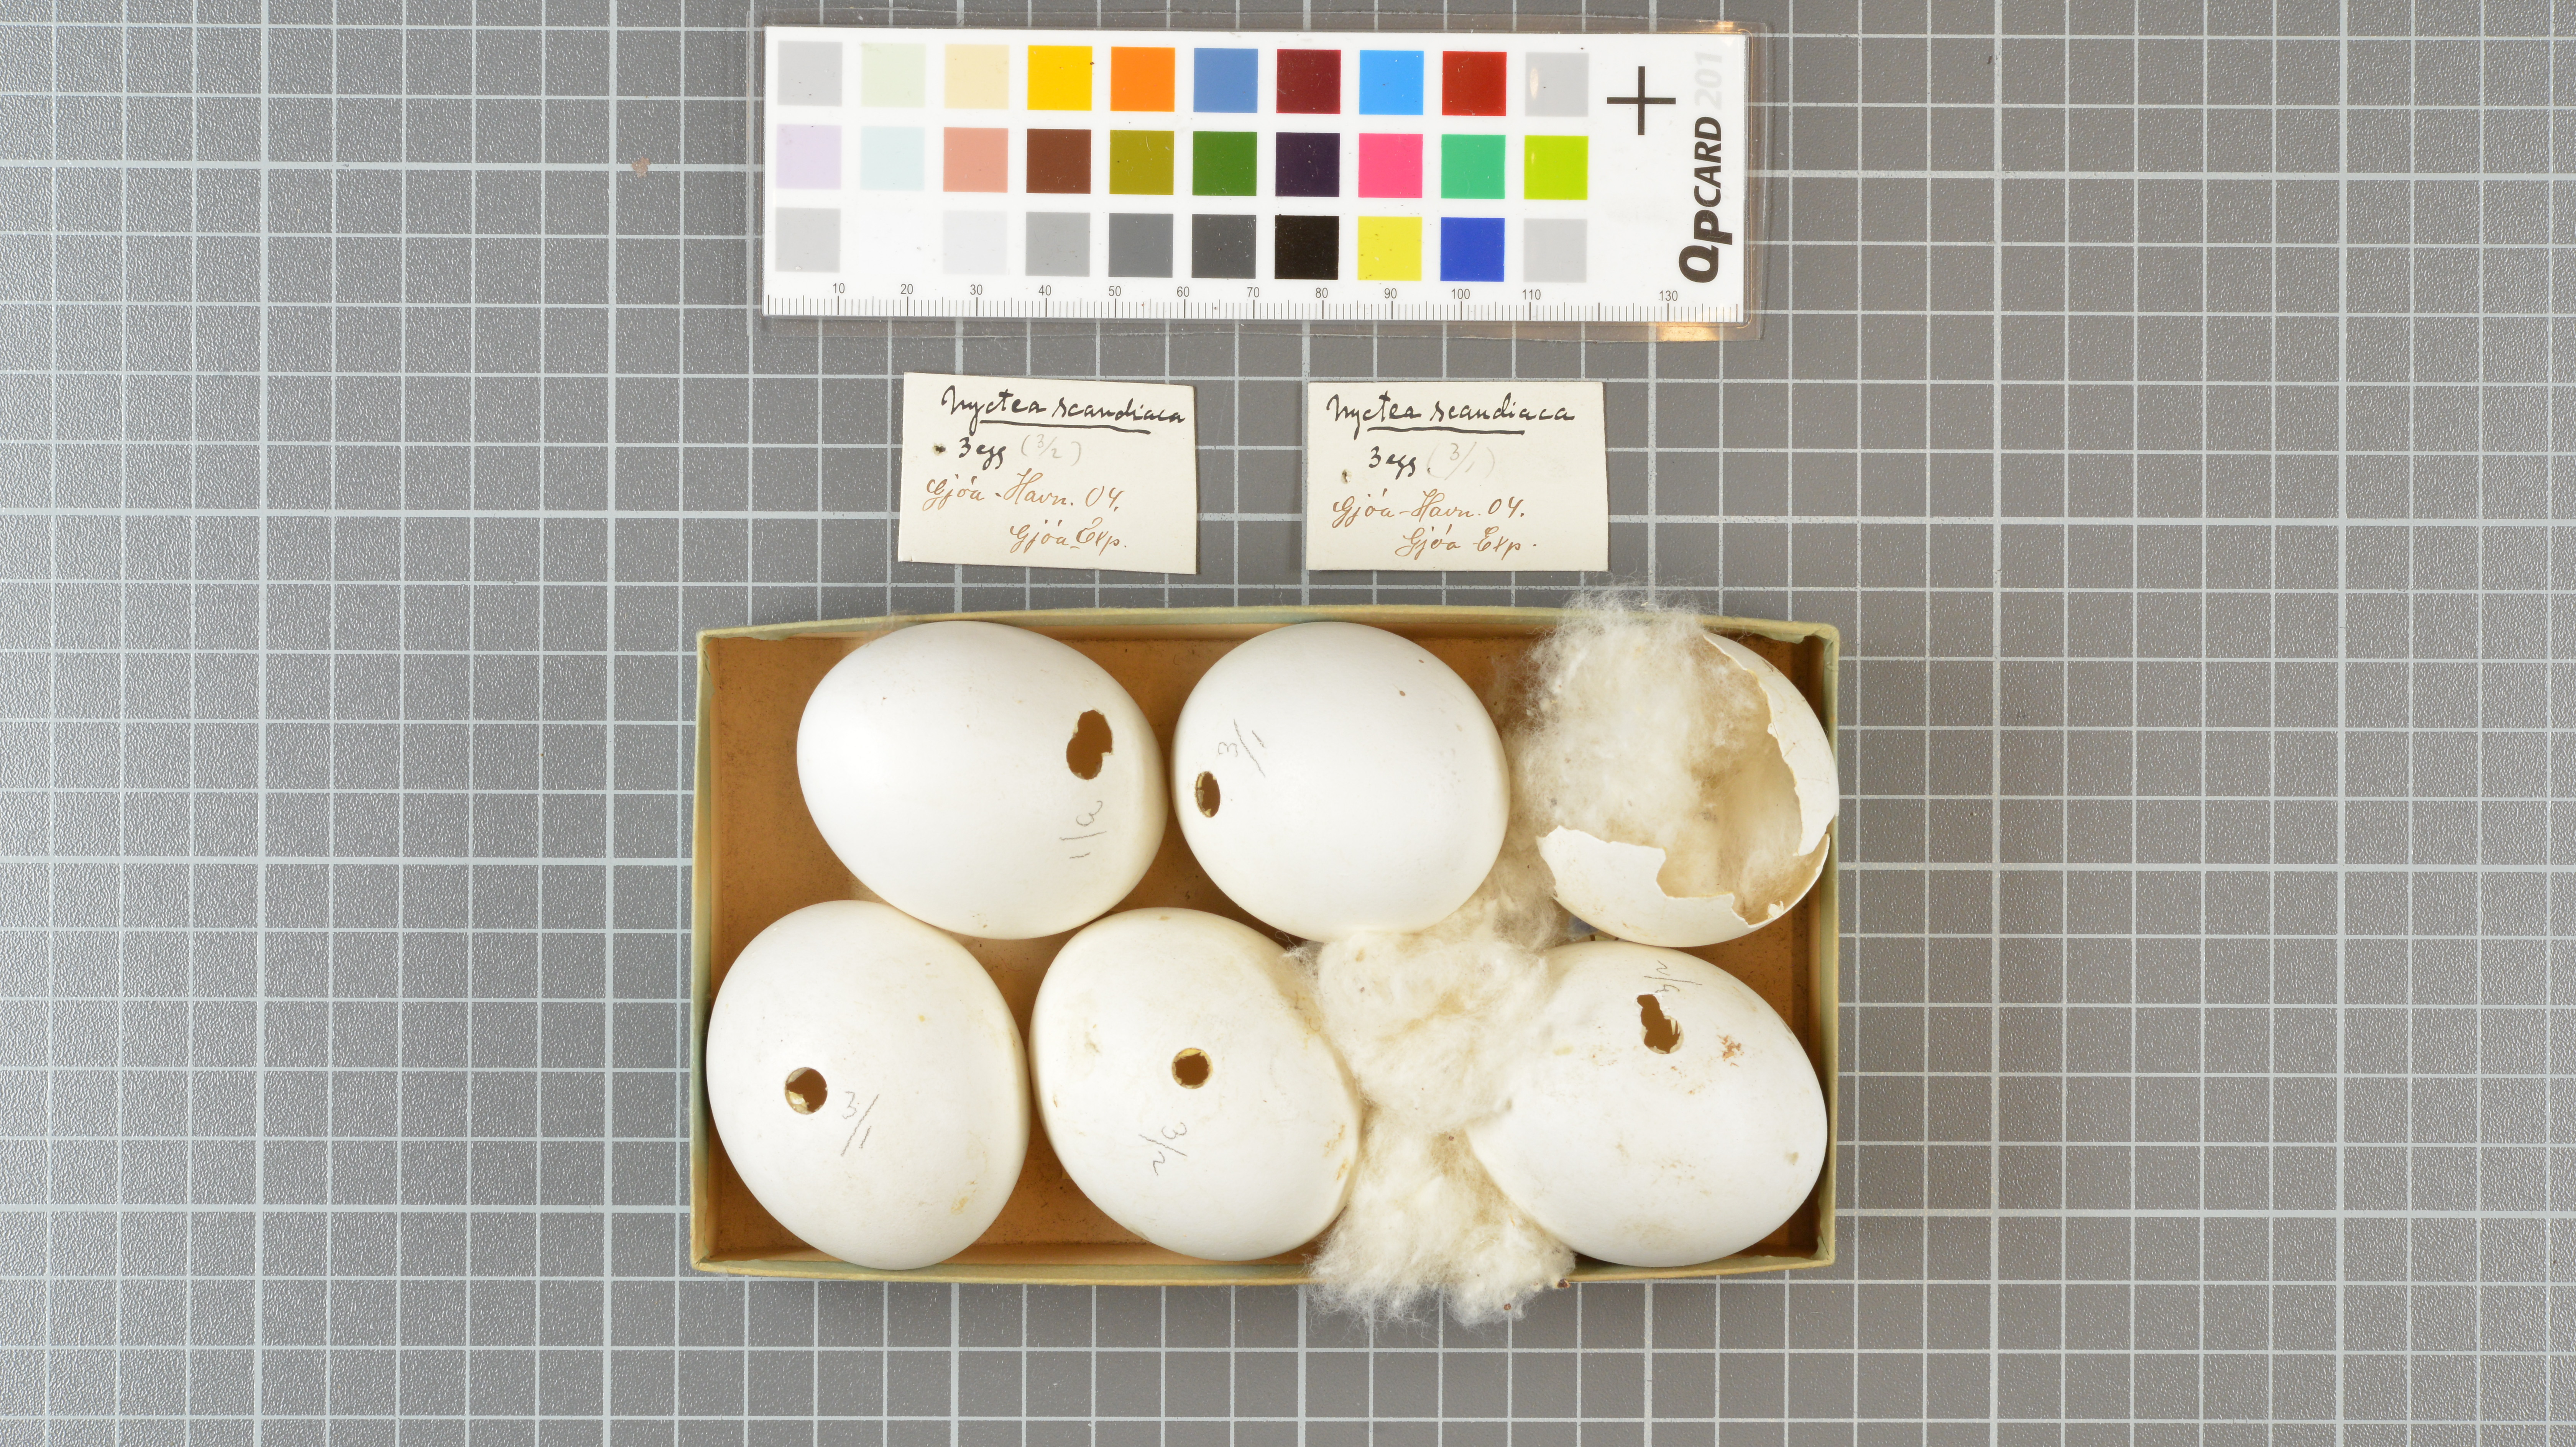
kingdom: Animalia
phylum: Chordata
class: Aves
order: Strigiformes
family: Strigidae
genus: Bubo
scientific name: Bubo scandiacus
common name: Snowy owl
